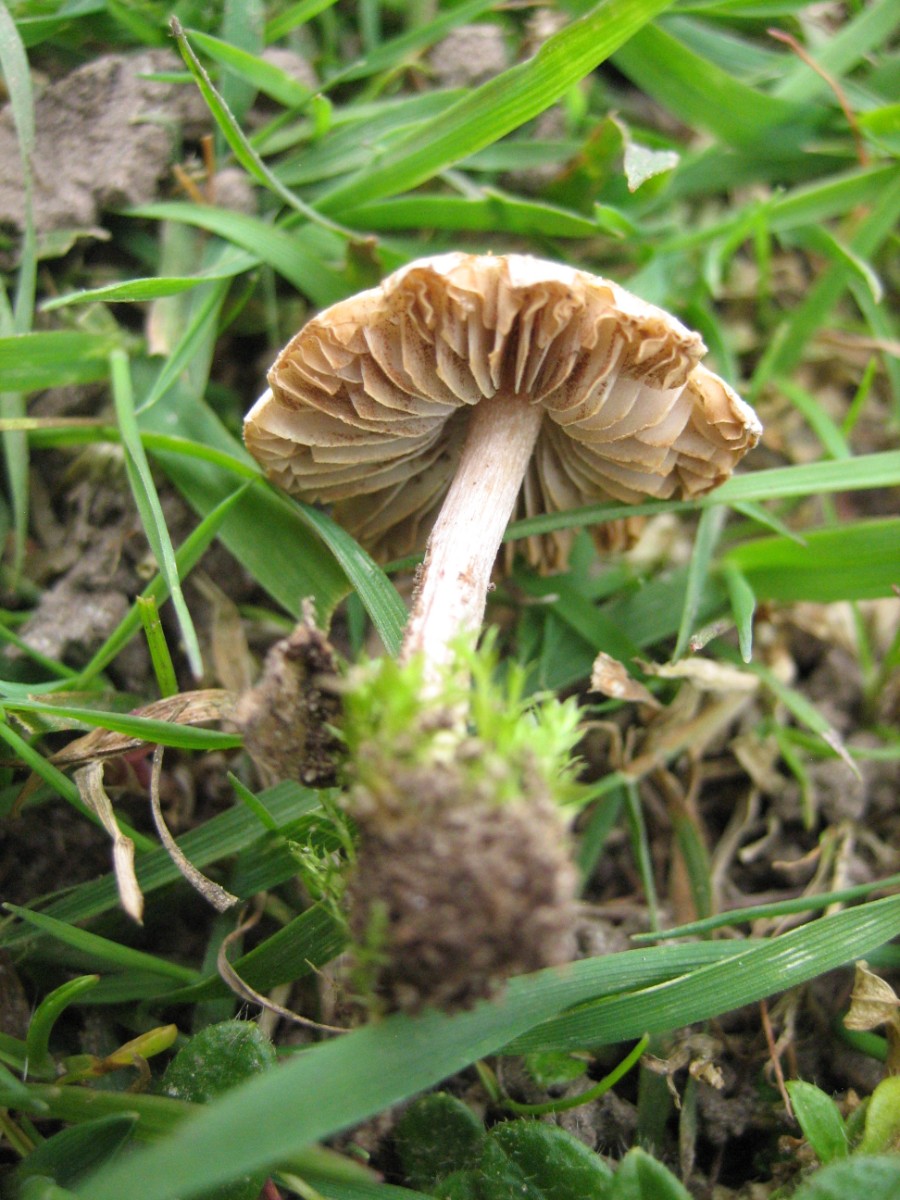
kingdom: Fungi
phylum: Basidiomycota
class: Agaricomycetes
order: Agaricales
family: Inocybaceae
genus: Inocybe
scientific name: Inocybe
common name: trævlhat
